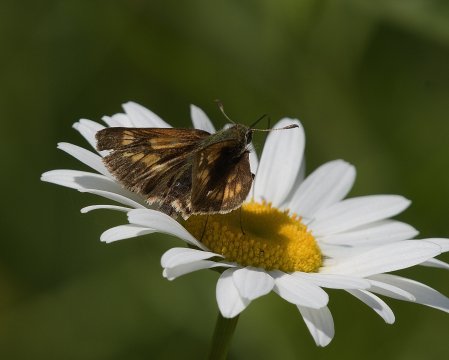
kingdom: Animalia
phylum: Arthropoda
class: Insecta
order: Lepidoptera
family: Hesperiidae
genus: Polites
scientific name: Polites
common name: Long Dash Skipper
